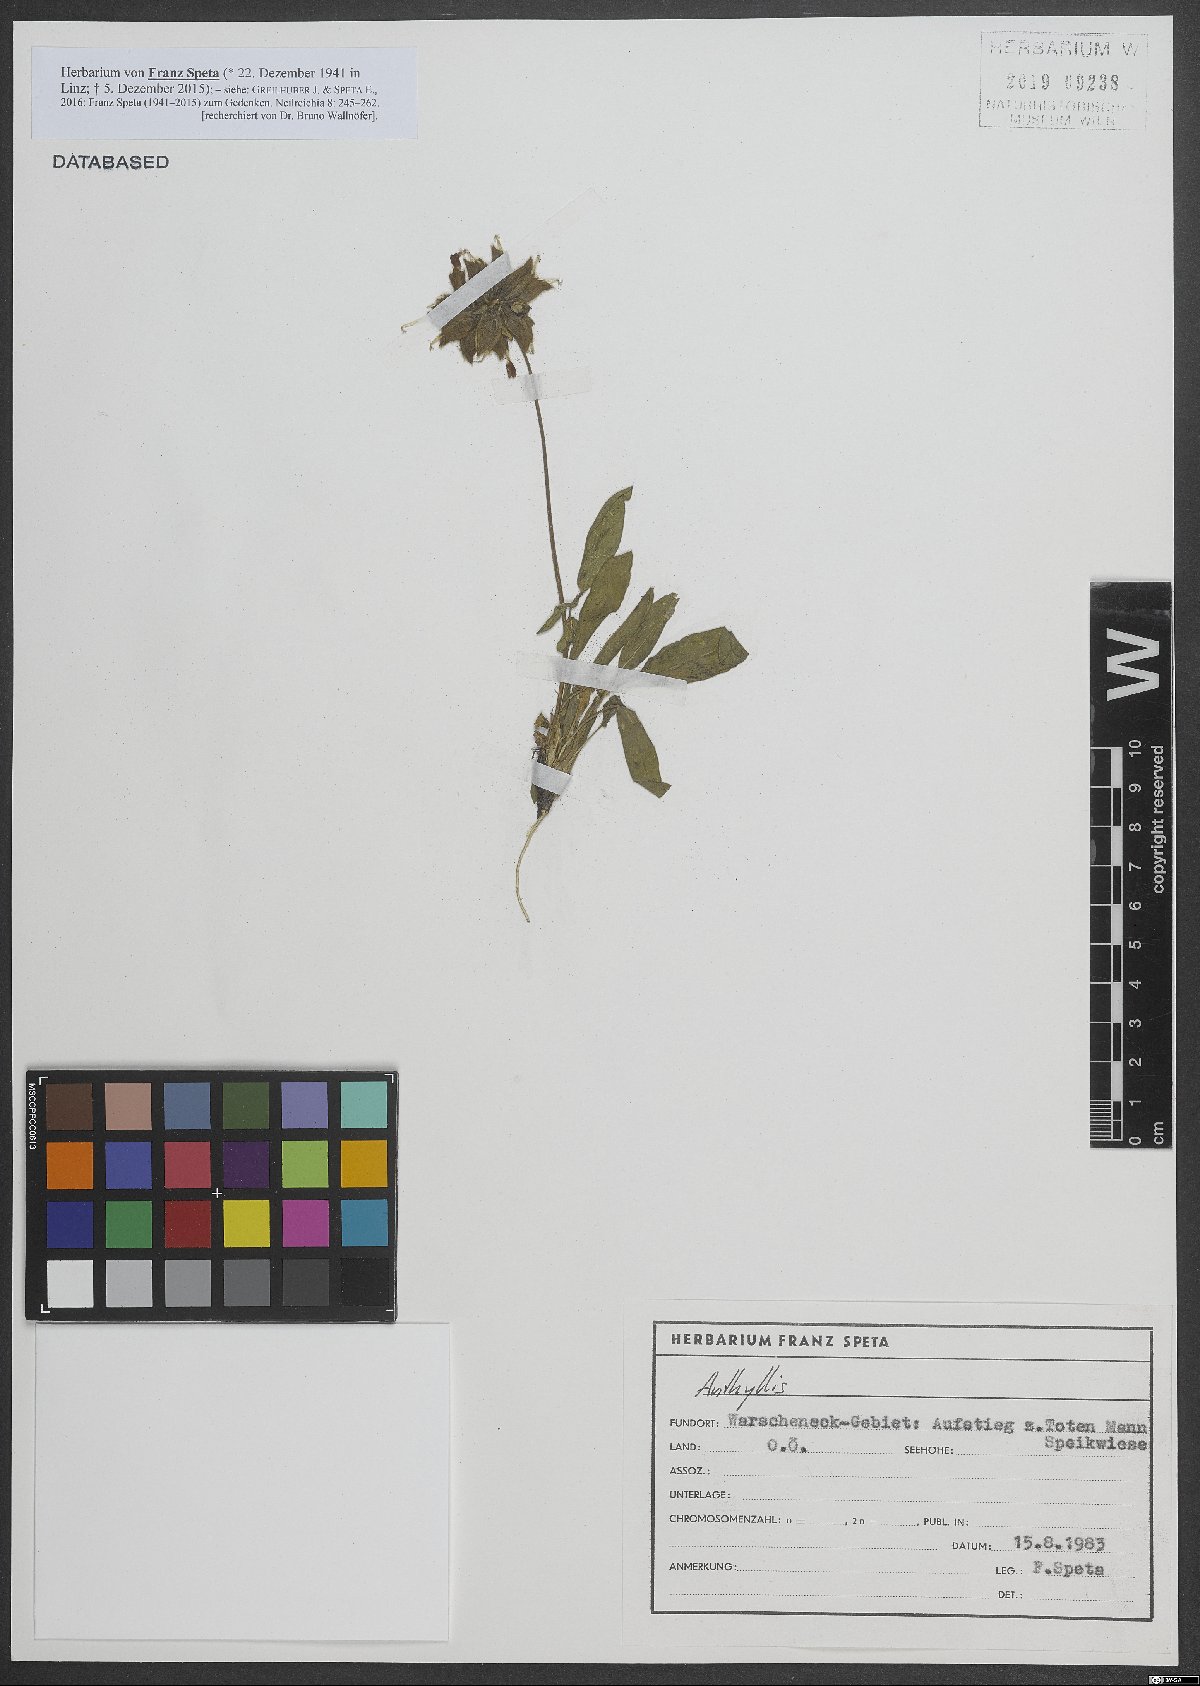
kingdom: Plantae
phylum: Tracheophyta
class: Magnoliopsida
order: Fabales
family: Fabaceae
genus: Anthyllis
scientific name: Anthyllis
